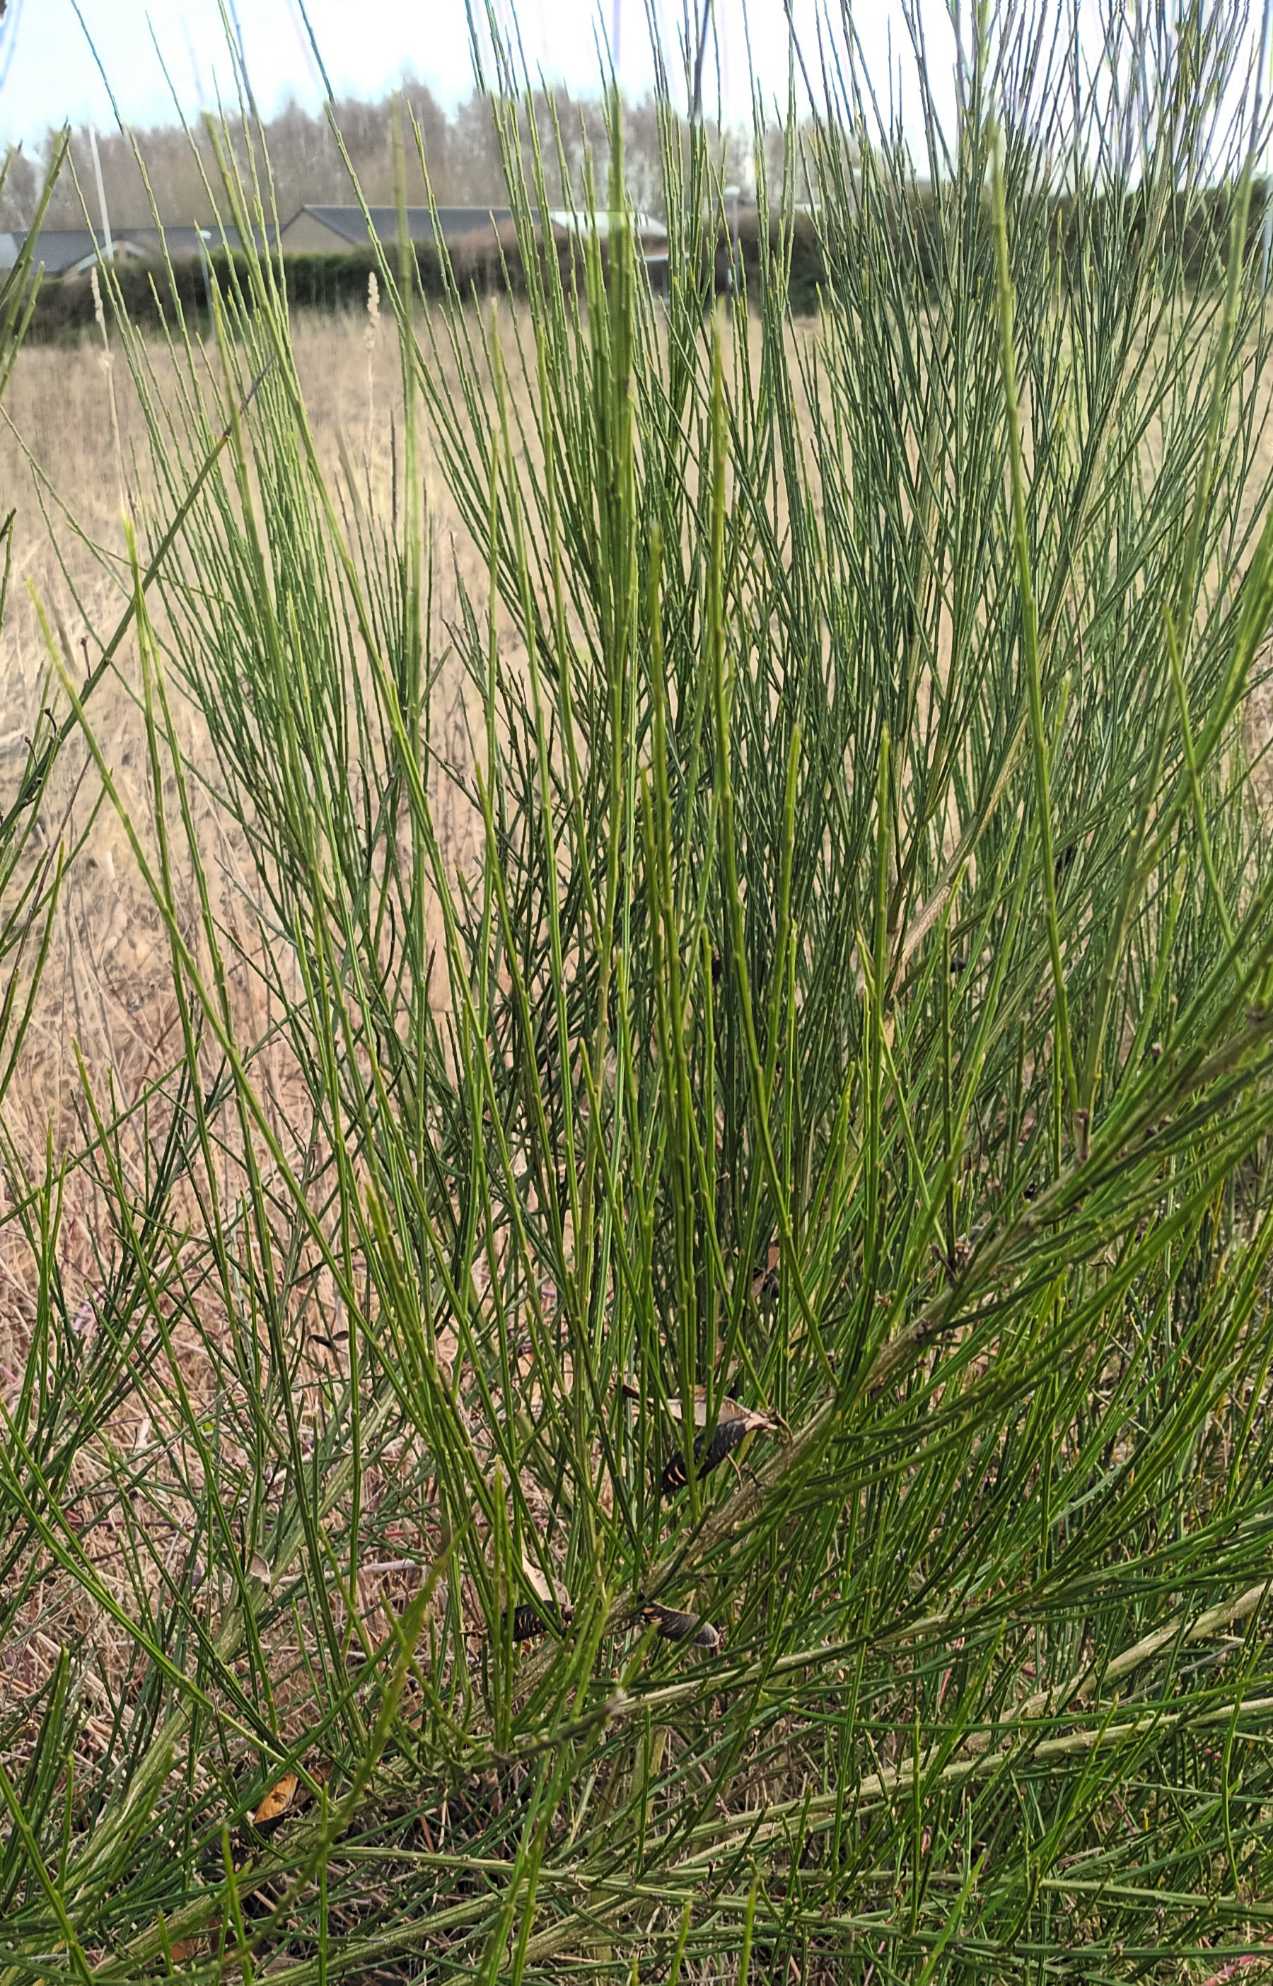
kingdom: Plantae
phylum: Tracheophyta
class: Magnoliopsida
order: Fabales
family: Fabaceae
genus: Cytisus
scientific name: Cytisus scoparius
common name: Almindelig gyvel
